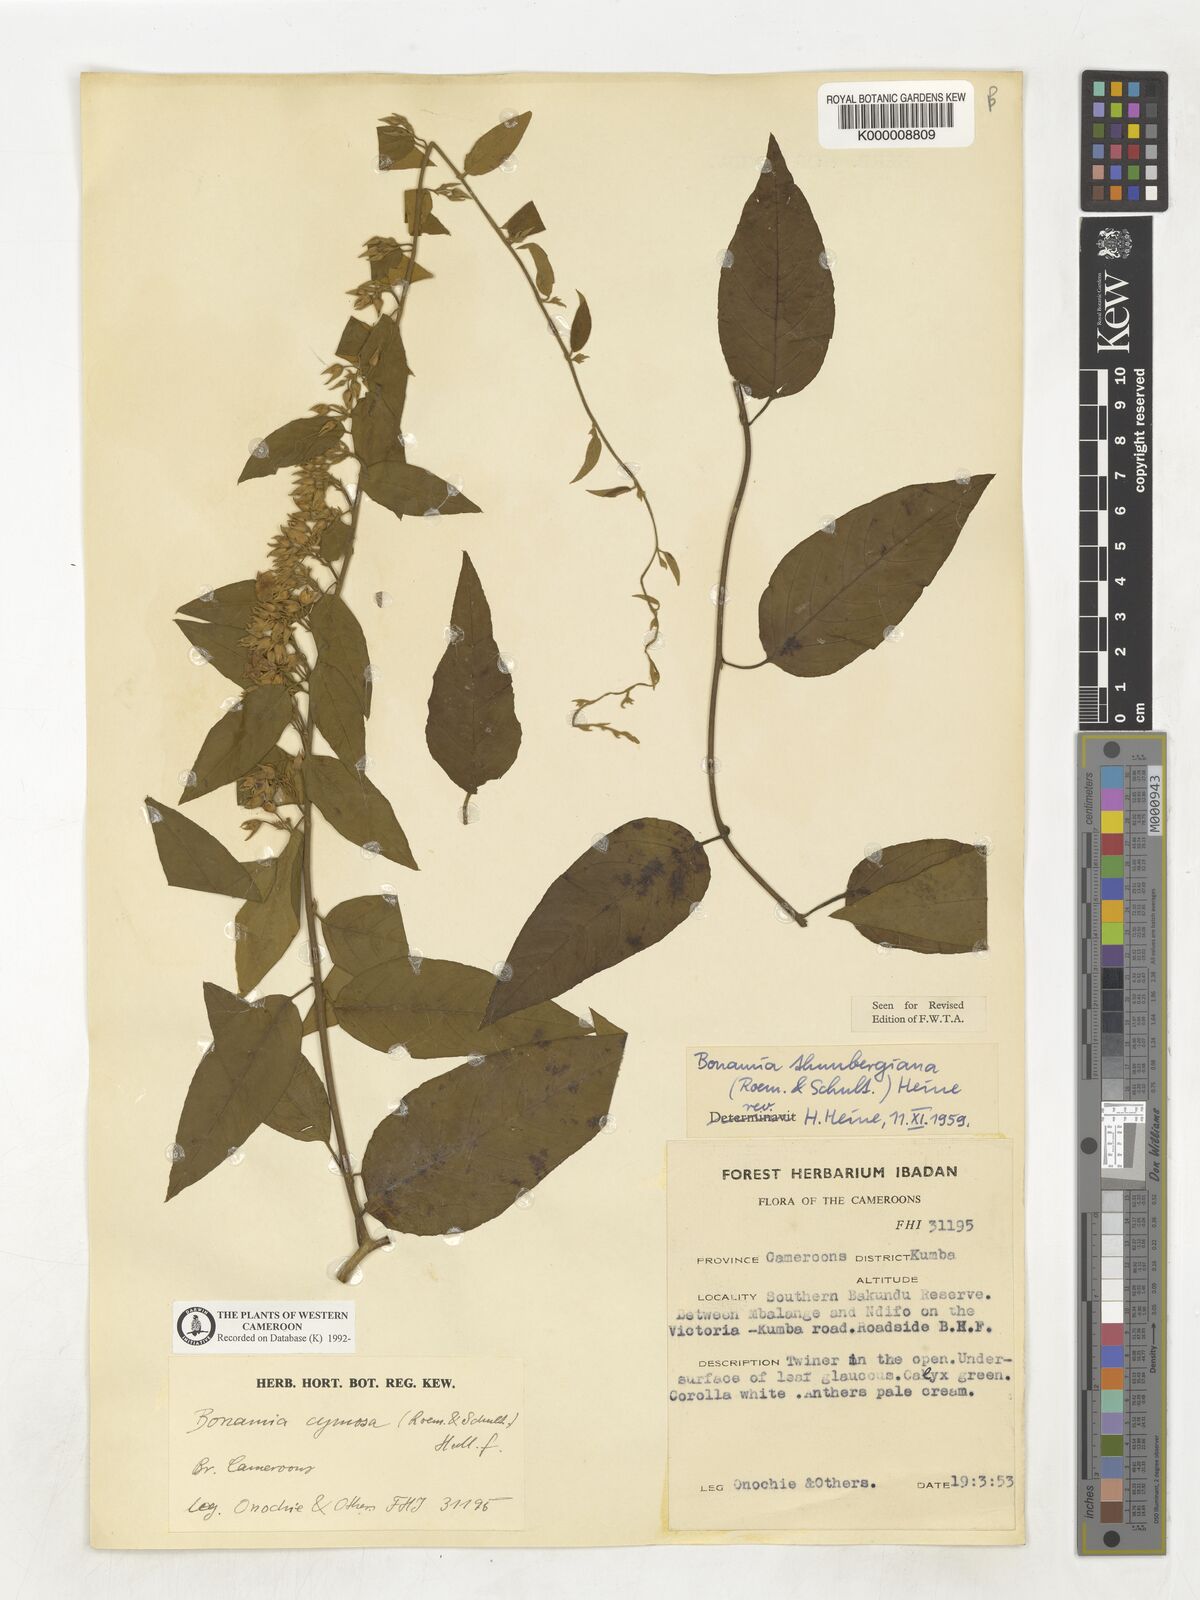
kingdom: Plantae
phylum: Tracheophyta
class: Magnoliopsida
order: Solanales
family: Convolvulaceae
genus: Bonamia
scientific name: Bonamia thunbergiana
